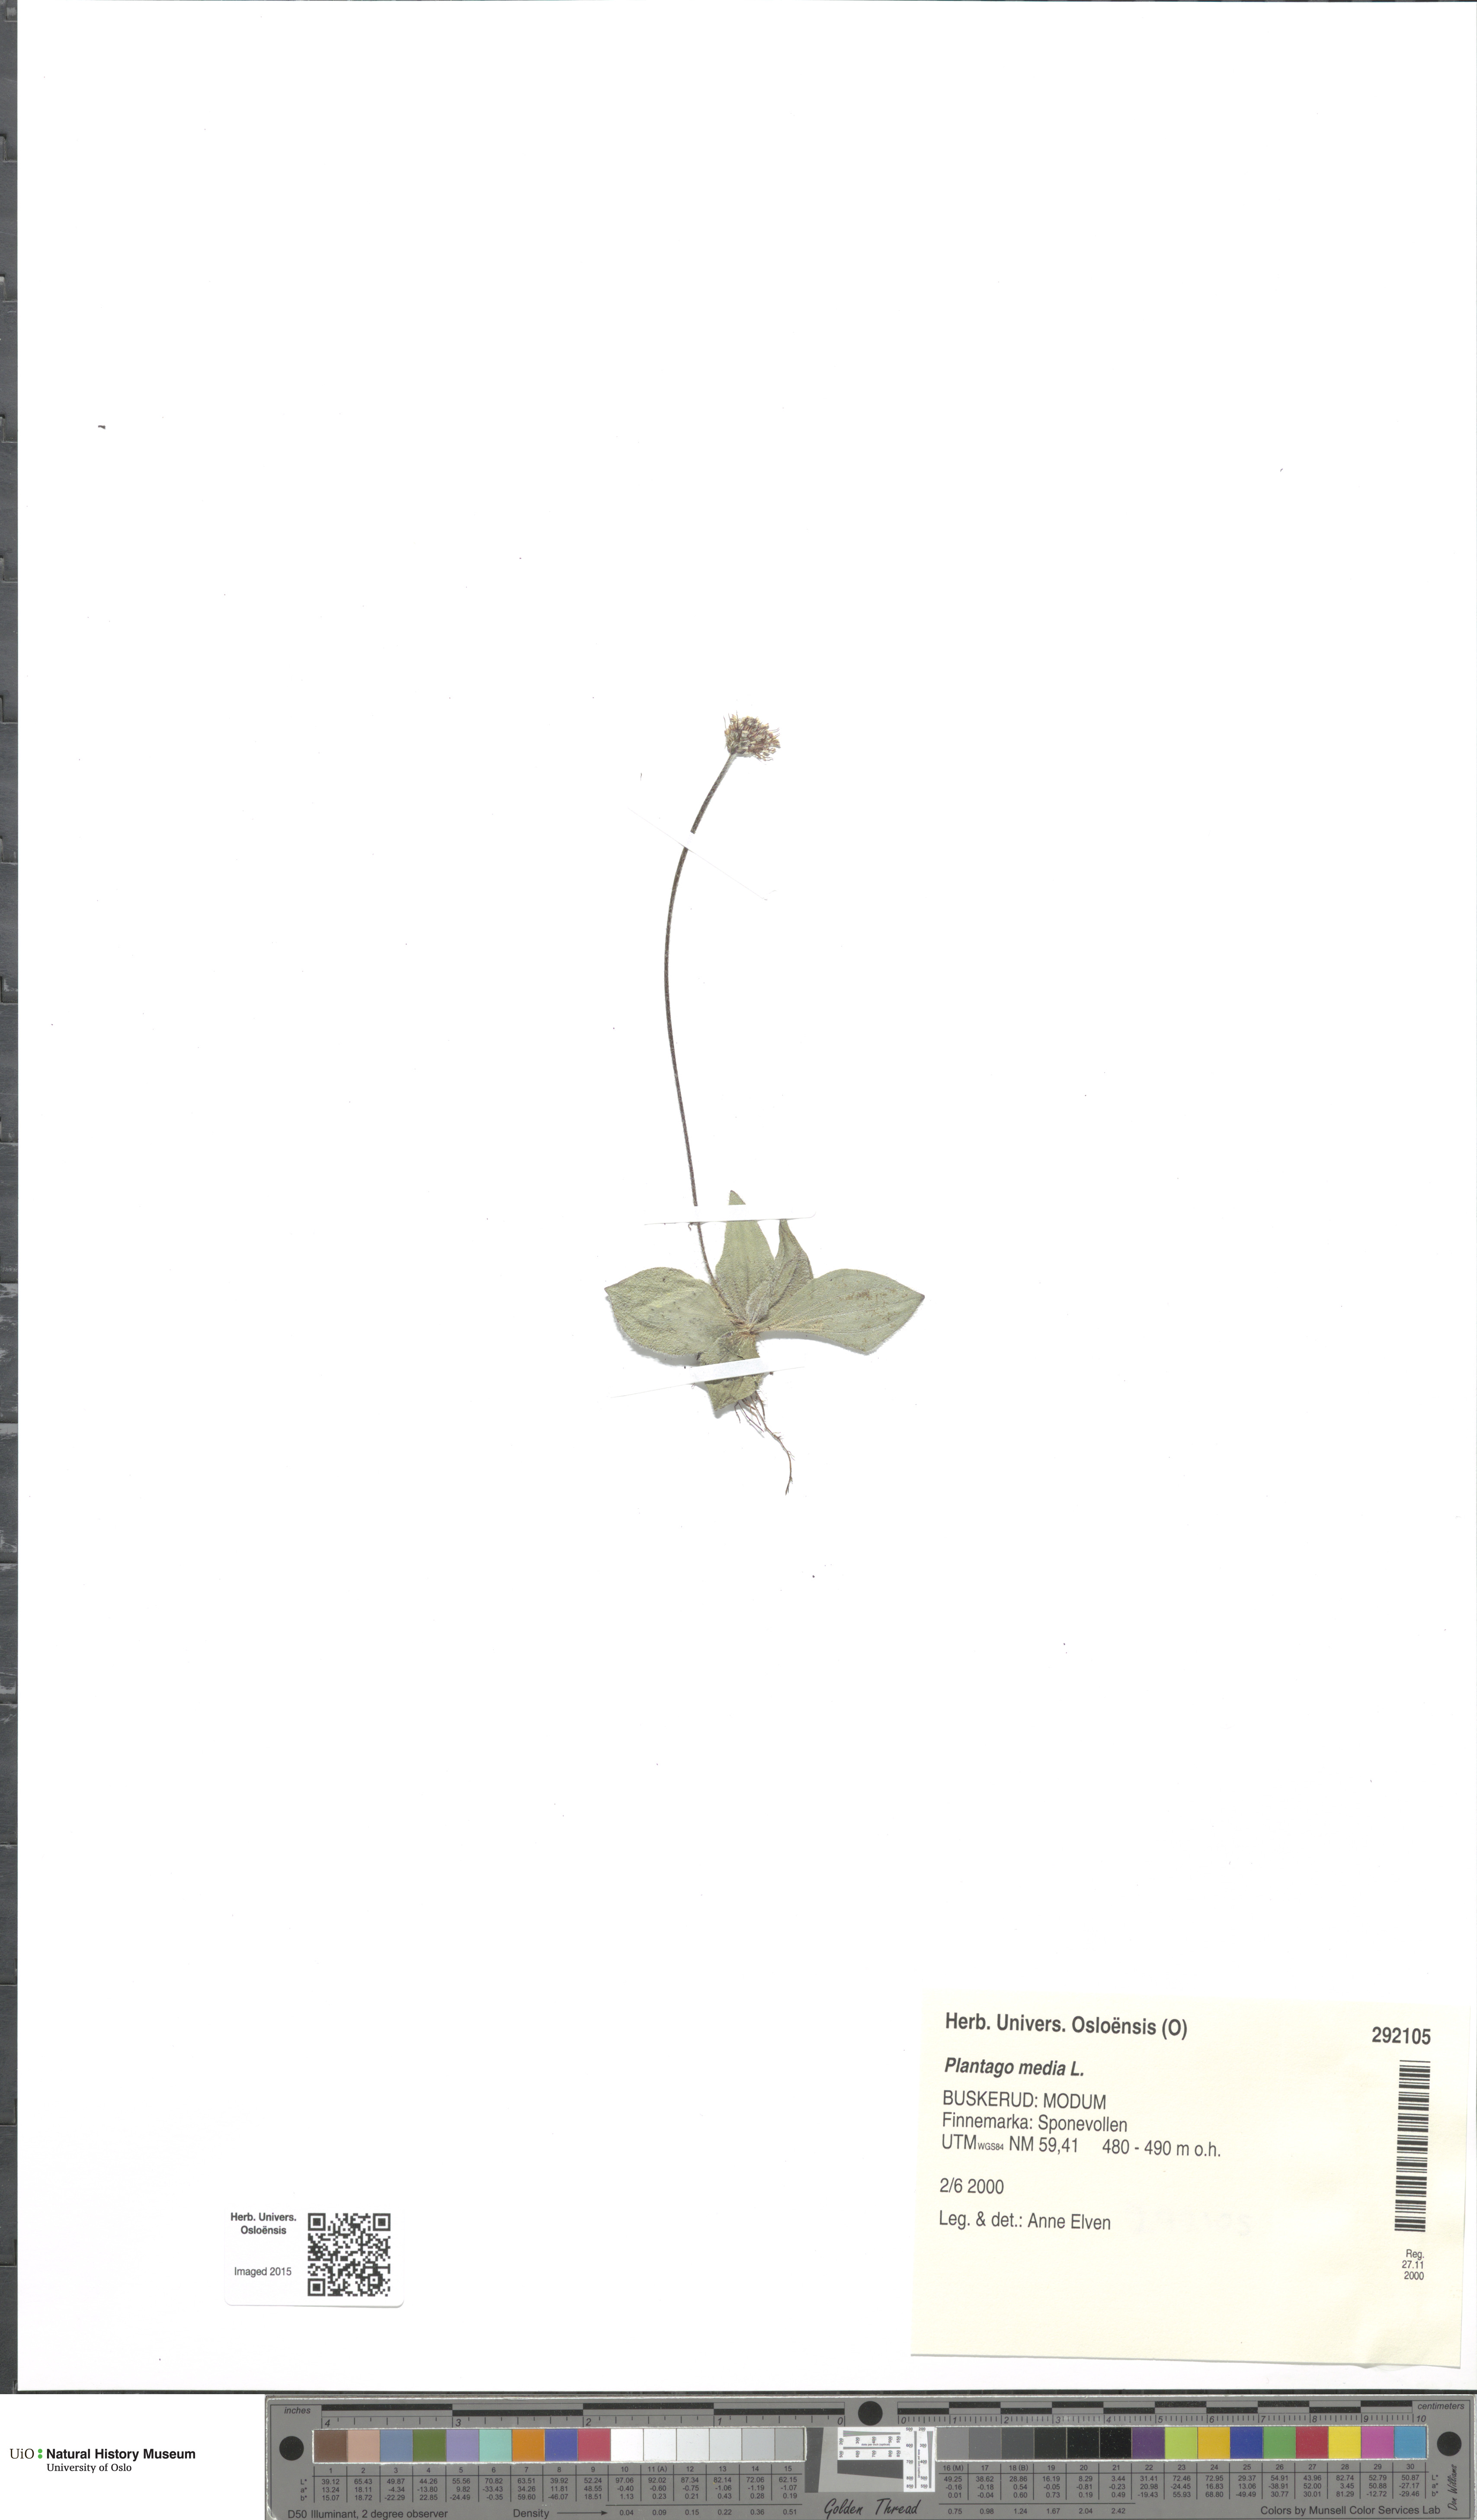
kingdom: Plantae
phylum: Tracheophyta
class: Magnoliopsida
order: Lamiales
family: Plantaginaceae
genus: Plantago
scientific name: Plantago media
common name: Hoary plantain
